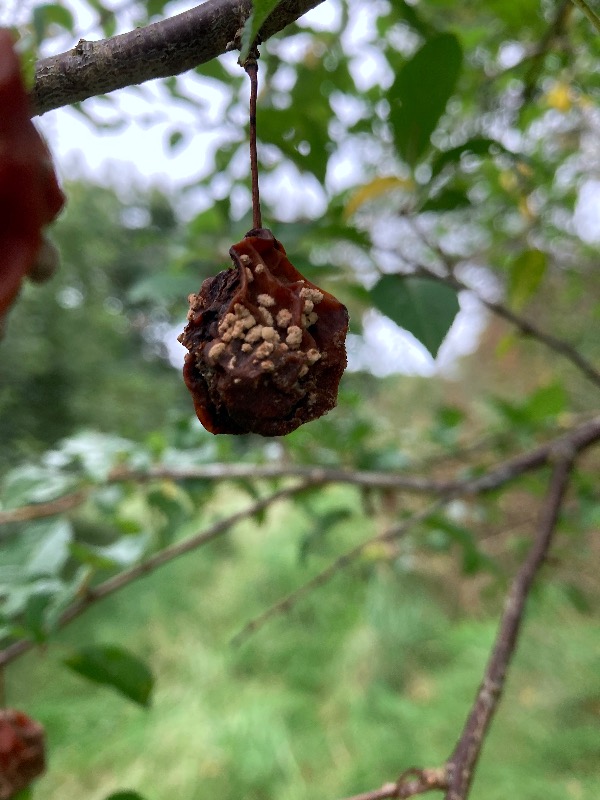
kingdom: Fungi
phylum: Ascomycota
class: Leotiomycetes
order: Helotiales
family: Sclerotiniaceae
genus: Monilinia
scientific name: Monilinia laxa
